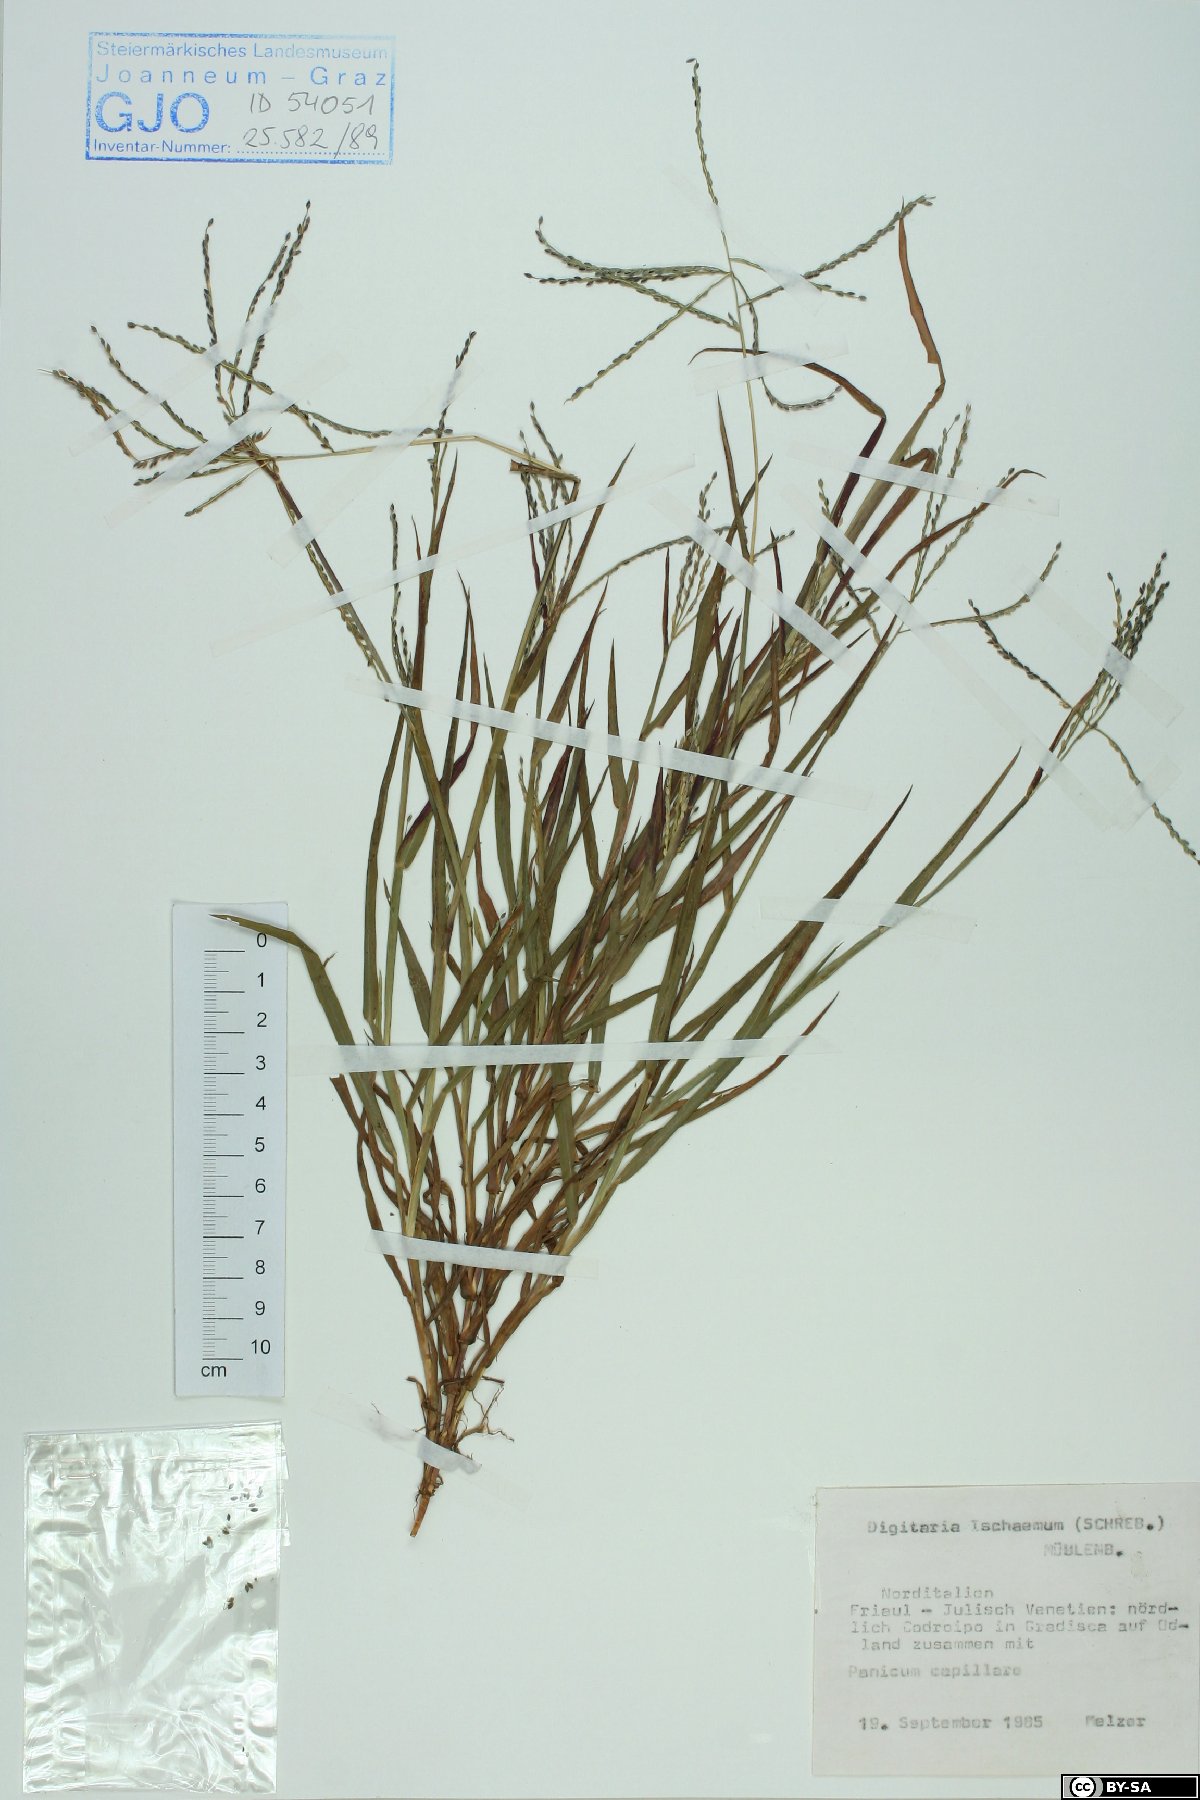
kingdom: Plantae
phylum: Tracheophyta
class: Liliopsida
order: Poales
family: Poaceae
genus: Digitaria
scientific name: Digitaria ischaemum
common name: Smooth crabgrass
